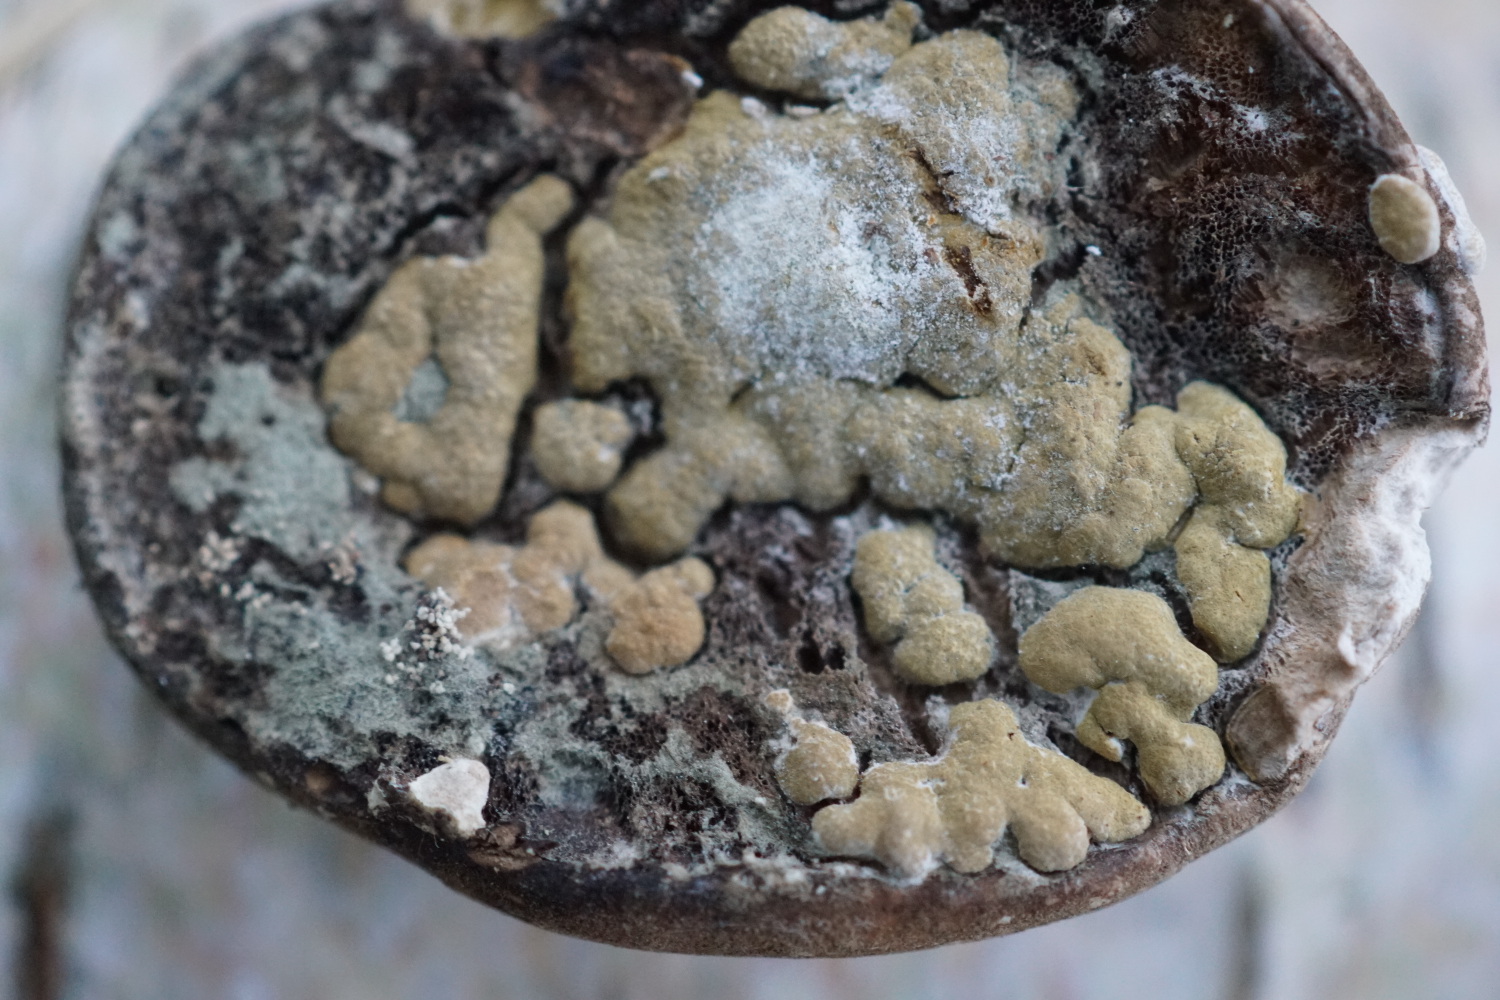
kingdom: Fungi
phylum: Ascomycota
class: Sordariomycetes
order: Hypocreales
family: Hypocreaceae
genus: Trichoderma
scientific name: Trichoderma pulvinatum
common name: snyltende kødkerne
